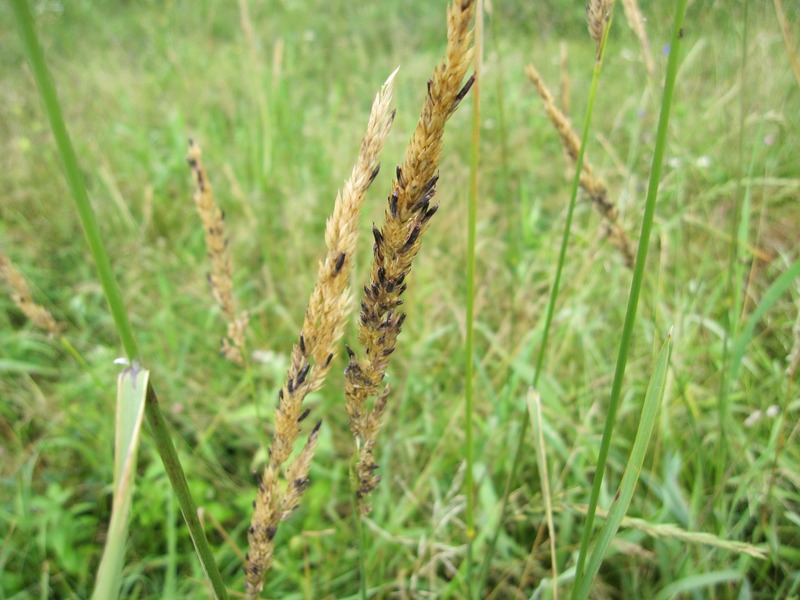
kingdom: Fungi
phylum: Ascomycota
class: Sordariomycetes
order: Hypocreales
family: Clavicipitaceae
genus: Claviceps
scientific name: Claviceps purpurea
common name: Rye ergot
